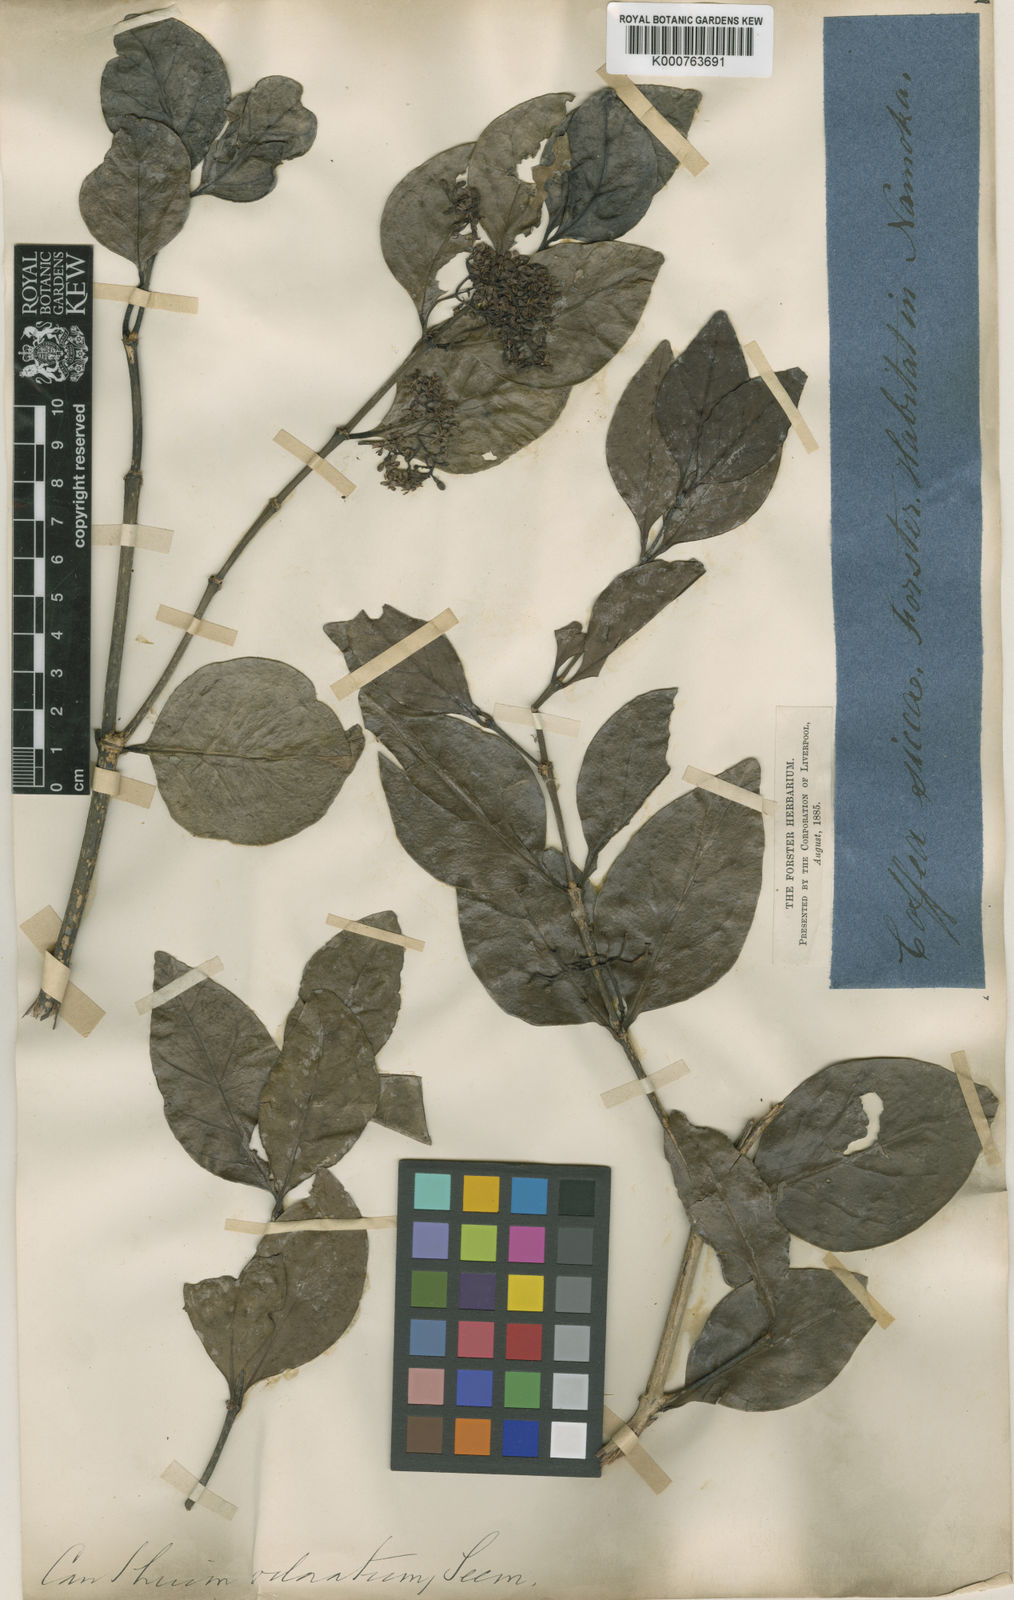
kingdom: Plantae
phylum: Tracheophyta
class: Magnoliopsida
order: Gentianales
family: Rubiaceae
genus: Psydrax
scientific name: Psydrax odoratus
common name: Alahe'e
